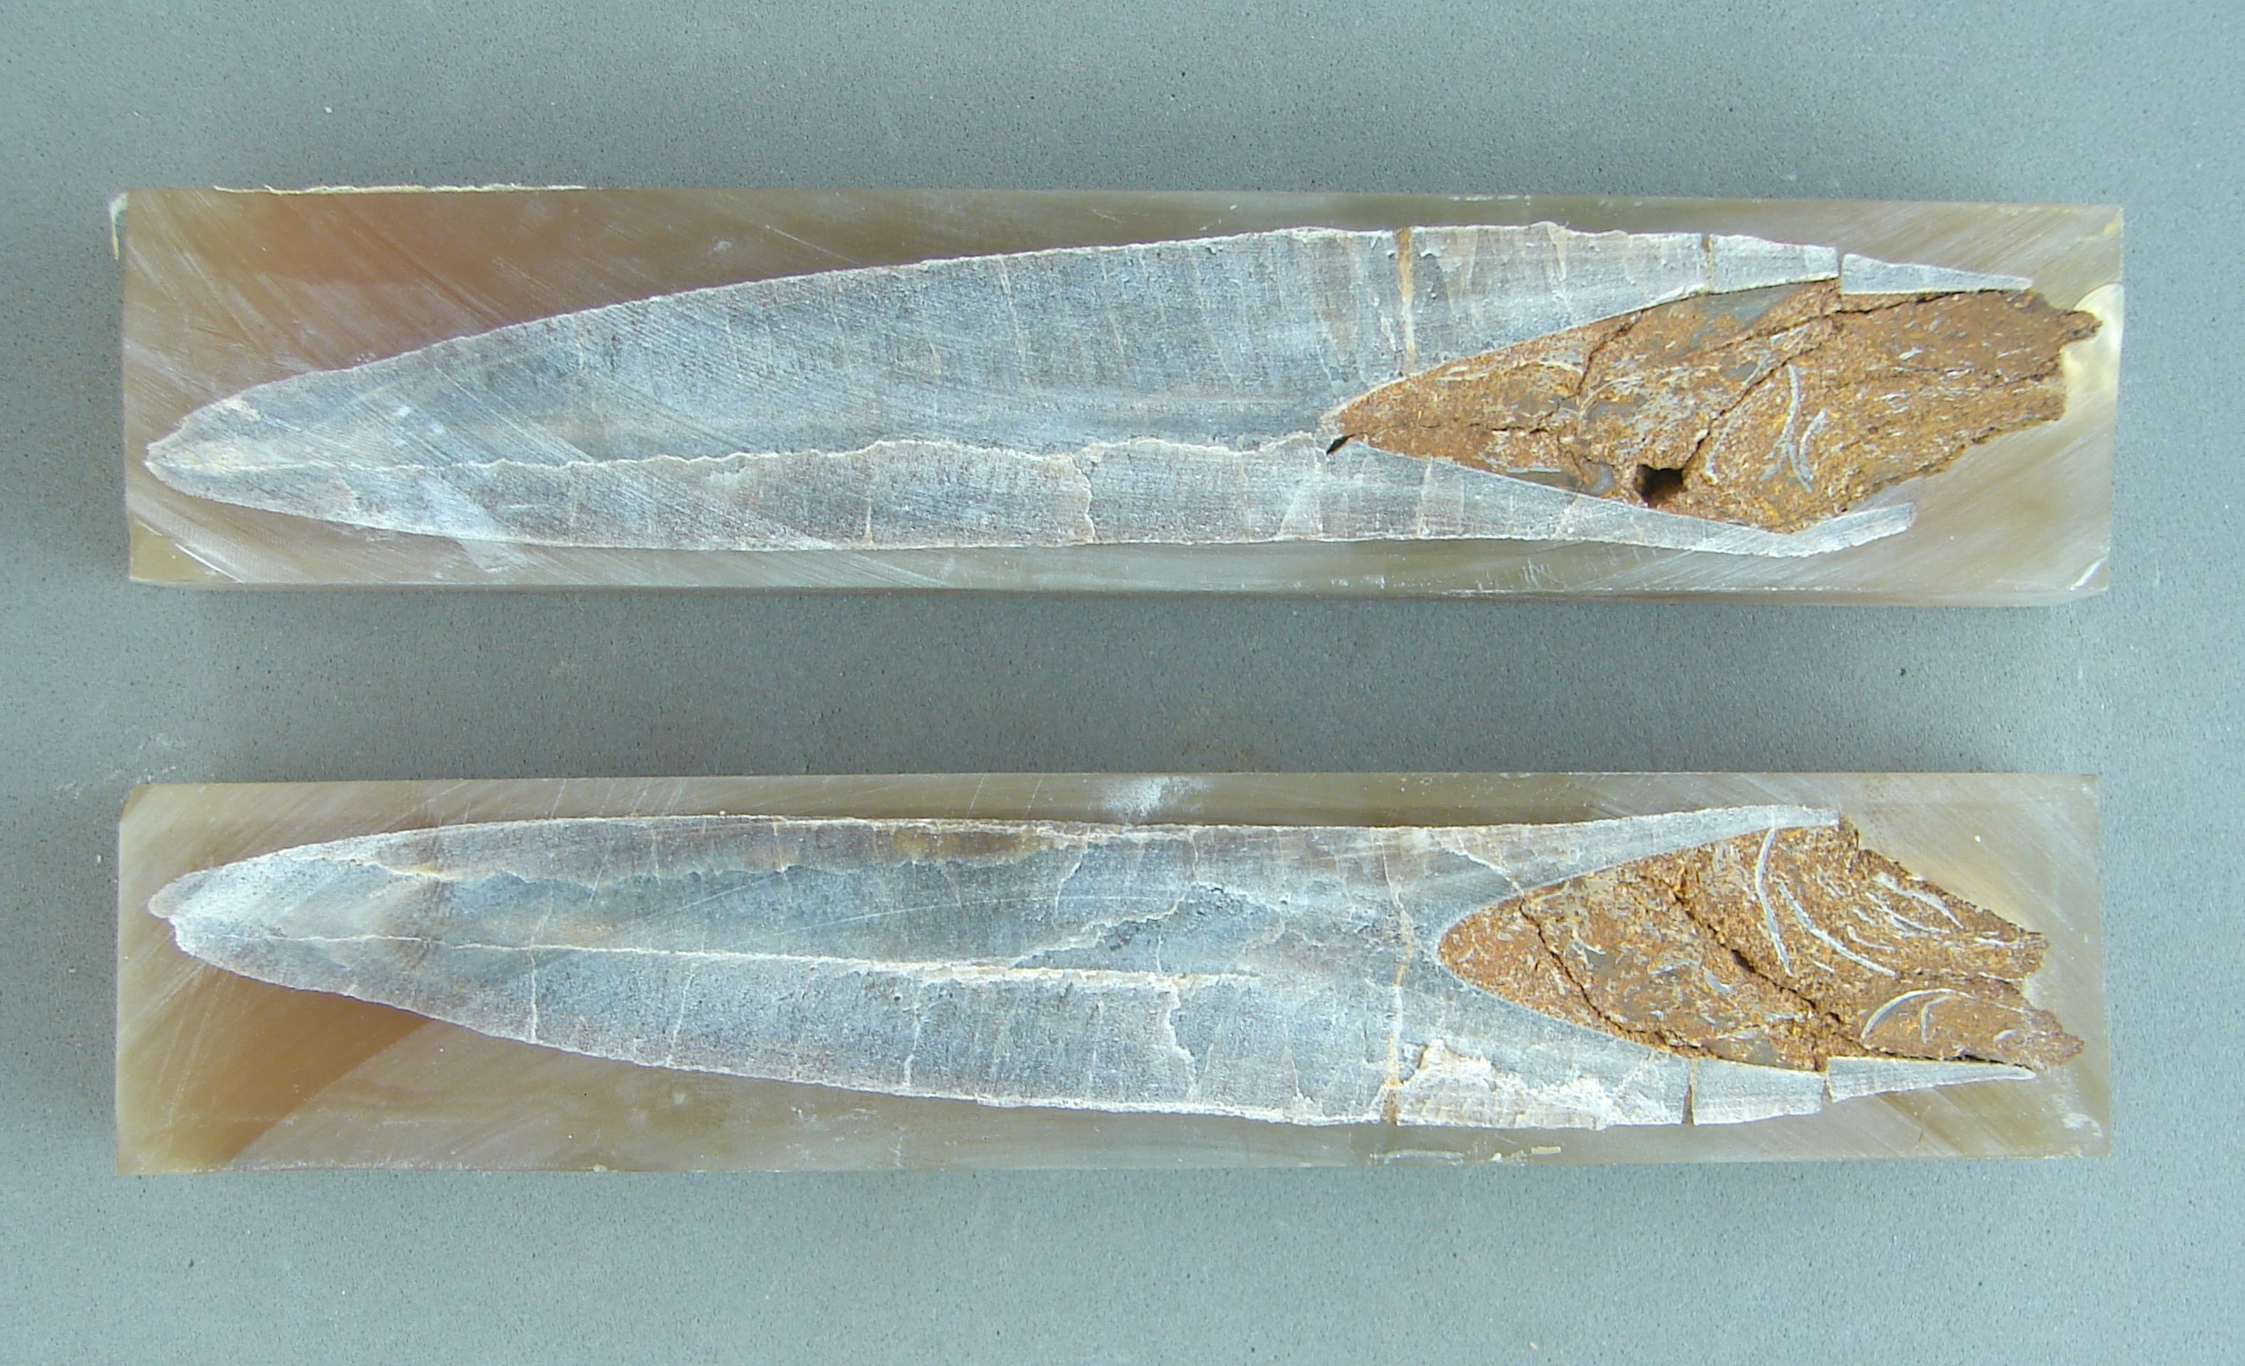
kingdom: Animalia
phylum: Mollusca
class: Cephalopoda
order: Belemnitida
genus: Mesoteuthis
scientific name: Mesoteuthis
